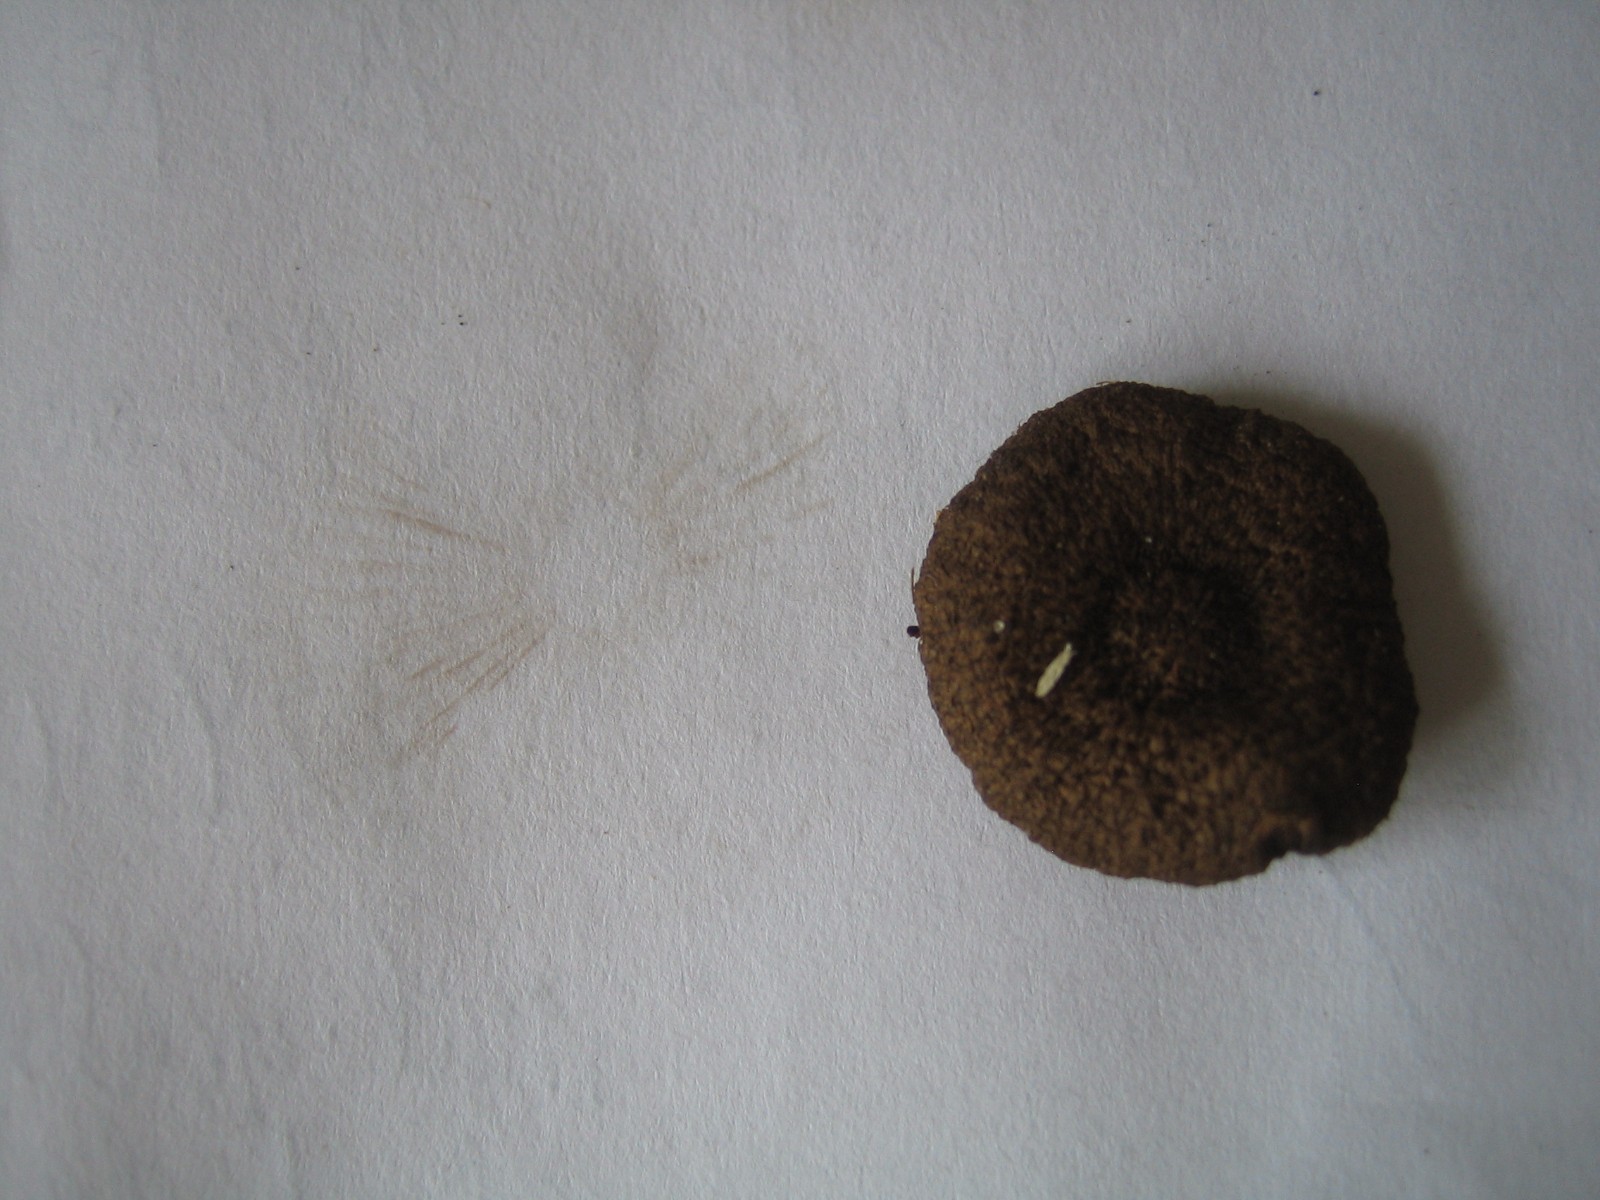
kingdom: Fungi
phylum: Basidiomycota
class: Agaricomycetes
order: Agaricales
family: Inocybaceae
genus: Inocybe
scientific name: Inocybe
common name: trævlhat
